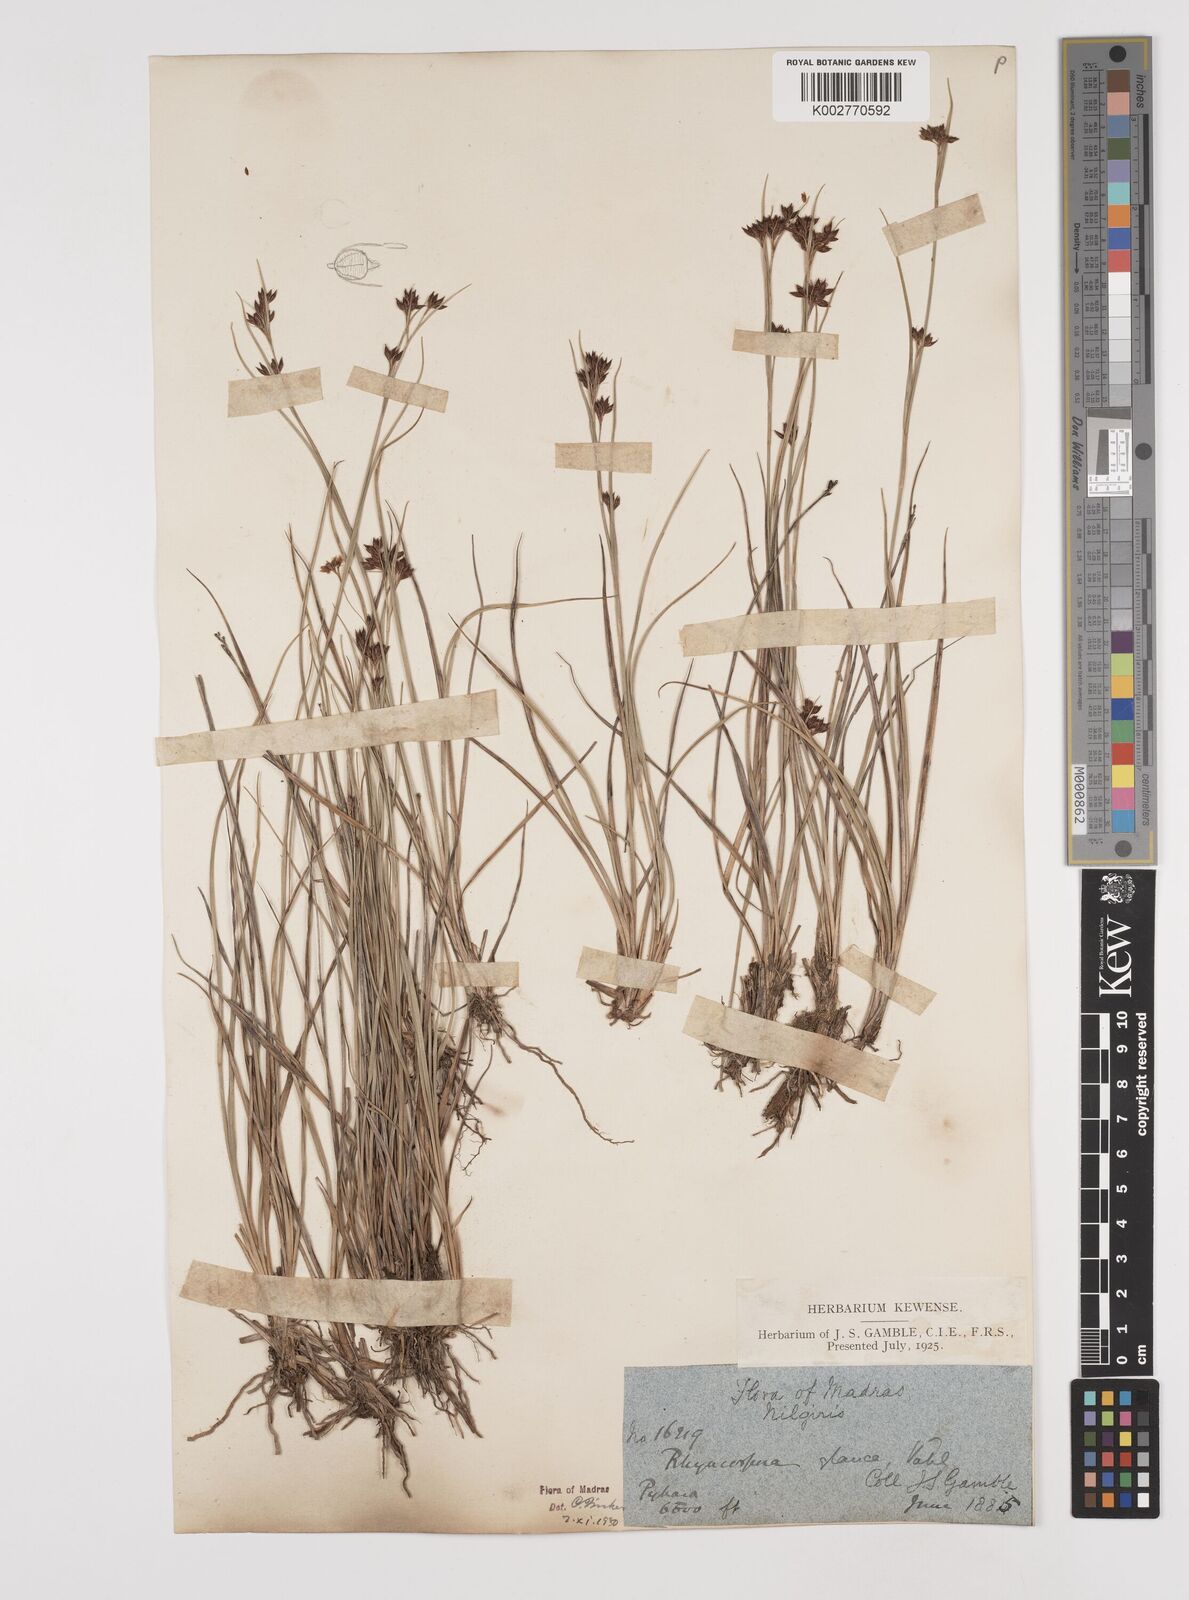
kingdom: Plantae
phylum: Tracheophyta
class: Liliopsida
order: Poales
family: Cyperaceae
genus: Rhynchospora
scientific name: Rhynchospora rugosa
